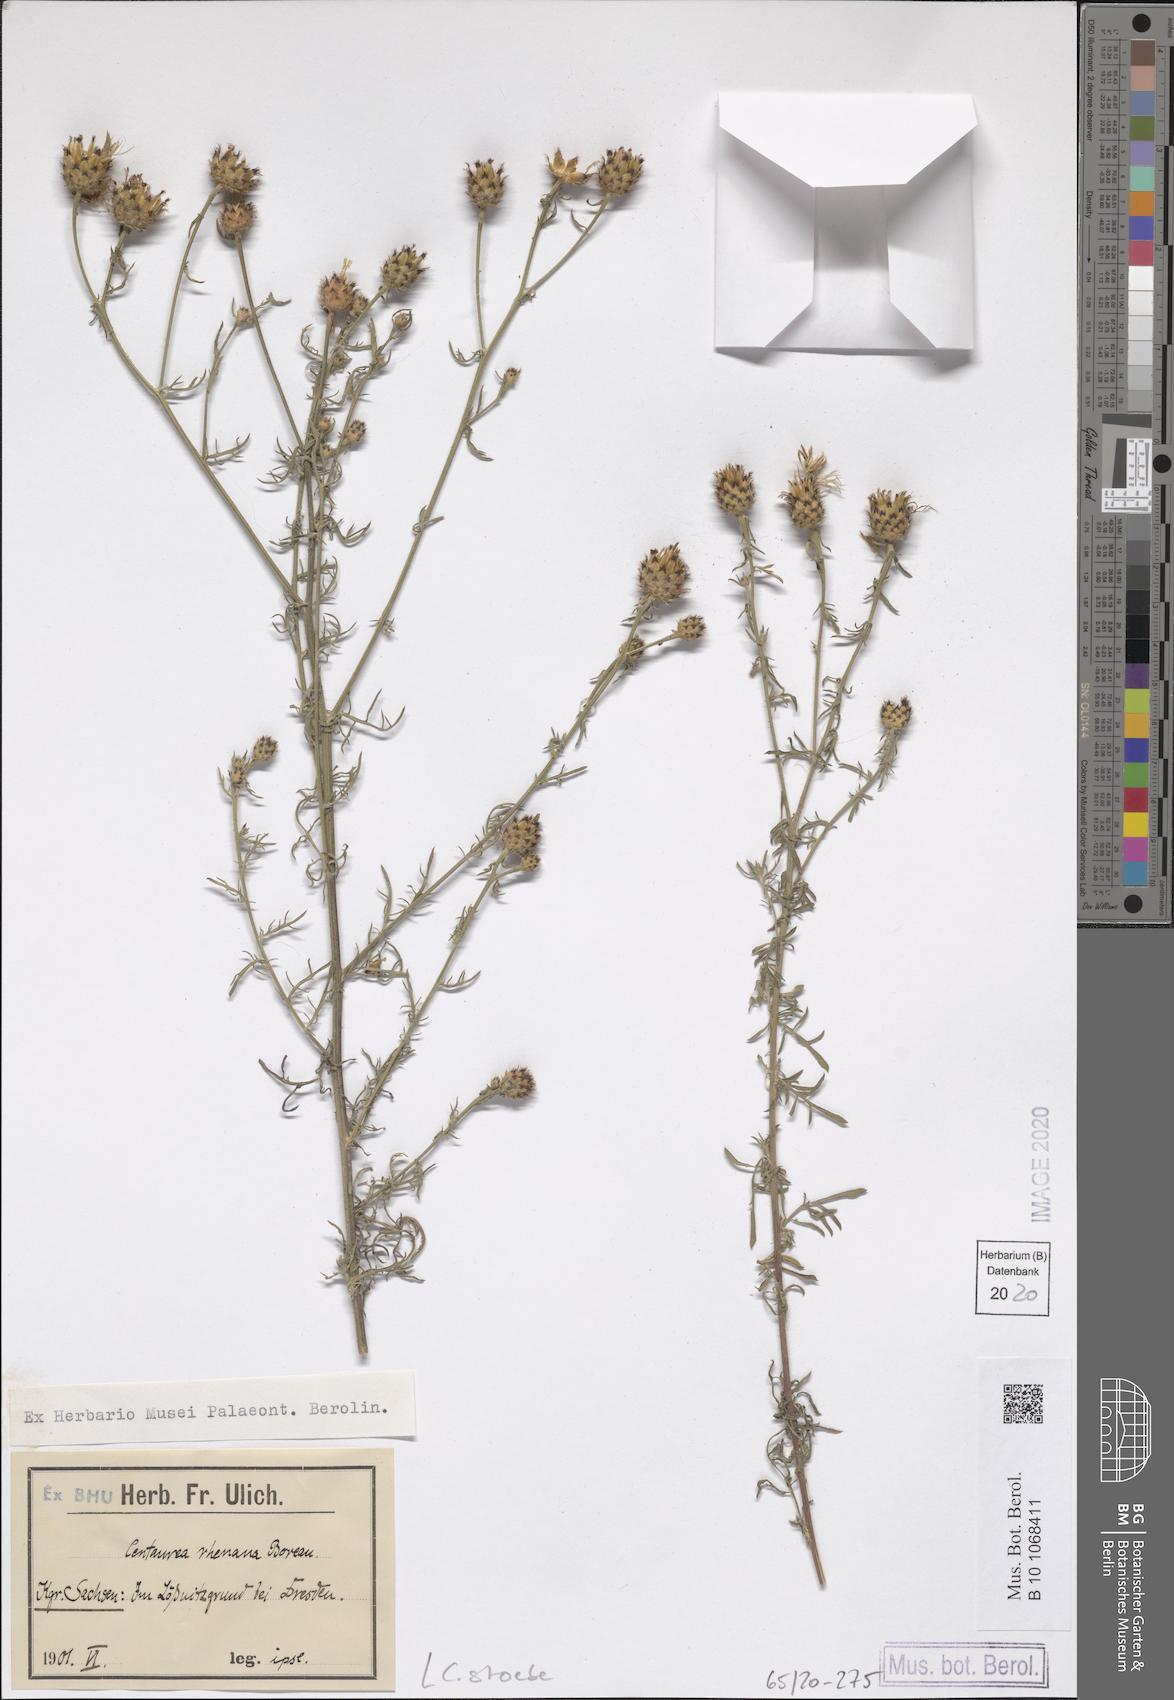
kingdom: Plantae
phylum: Tracheophyta
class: Magnoliopsida
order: Asterales
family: Asteraceae
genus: Centaurea
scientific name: Centaurea stoebe
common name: Spotted knapweed
